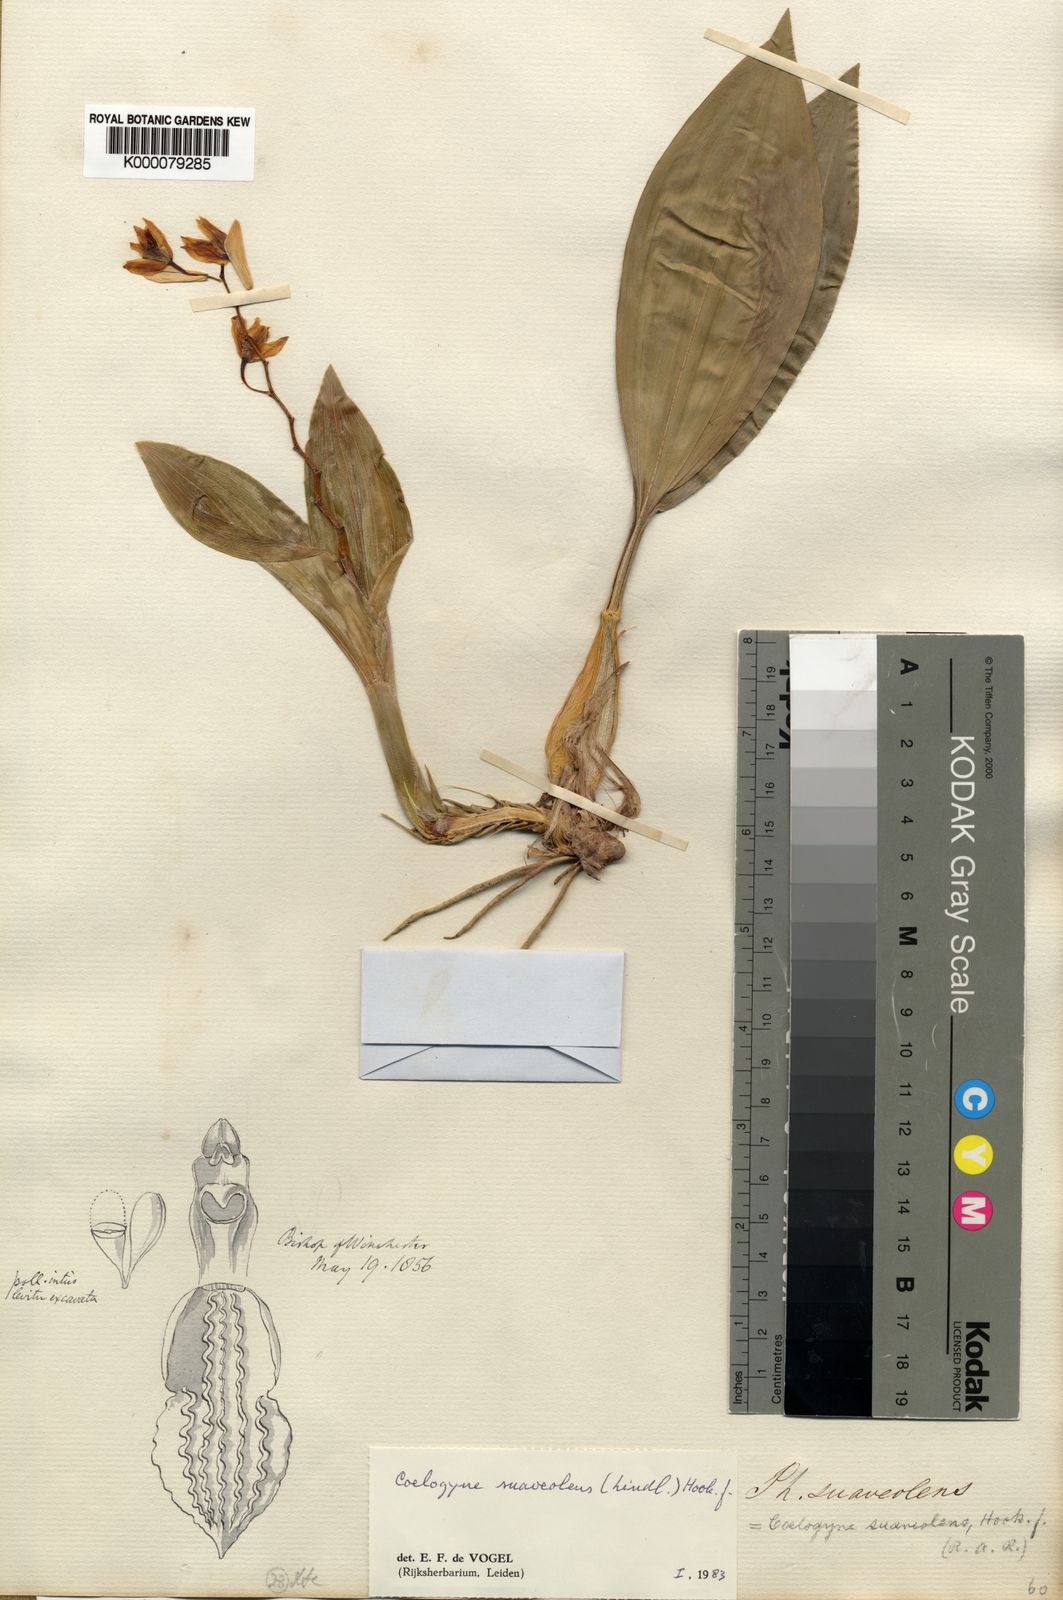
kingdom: Plantae
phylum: Tracheophyta
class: Liliopsida
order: Asparagales
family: Orchidaceae
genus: Coelogyne
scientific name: Coelogyne suaveolens
